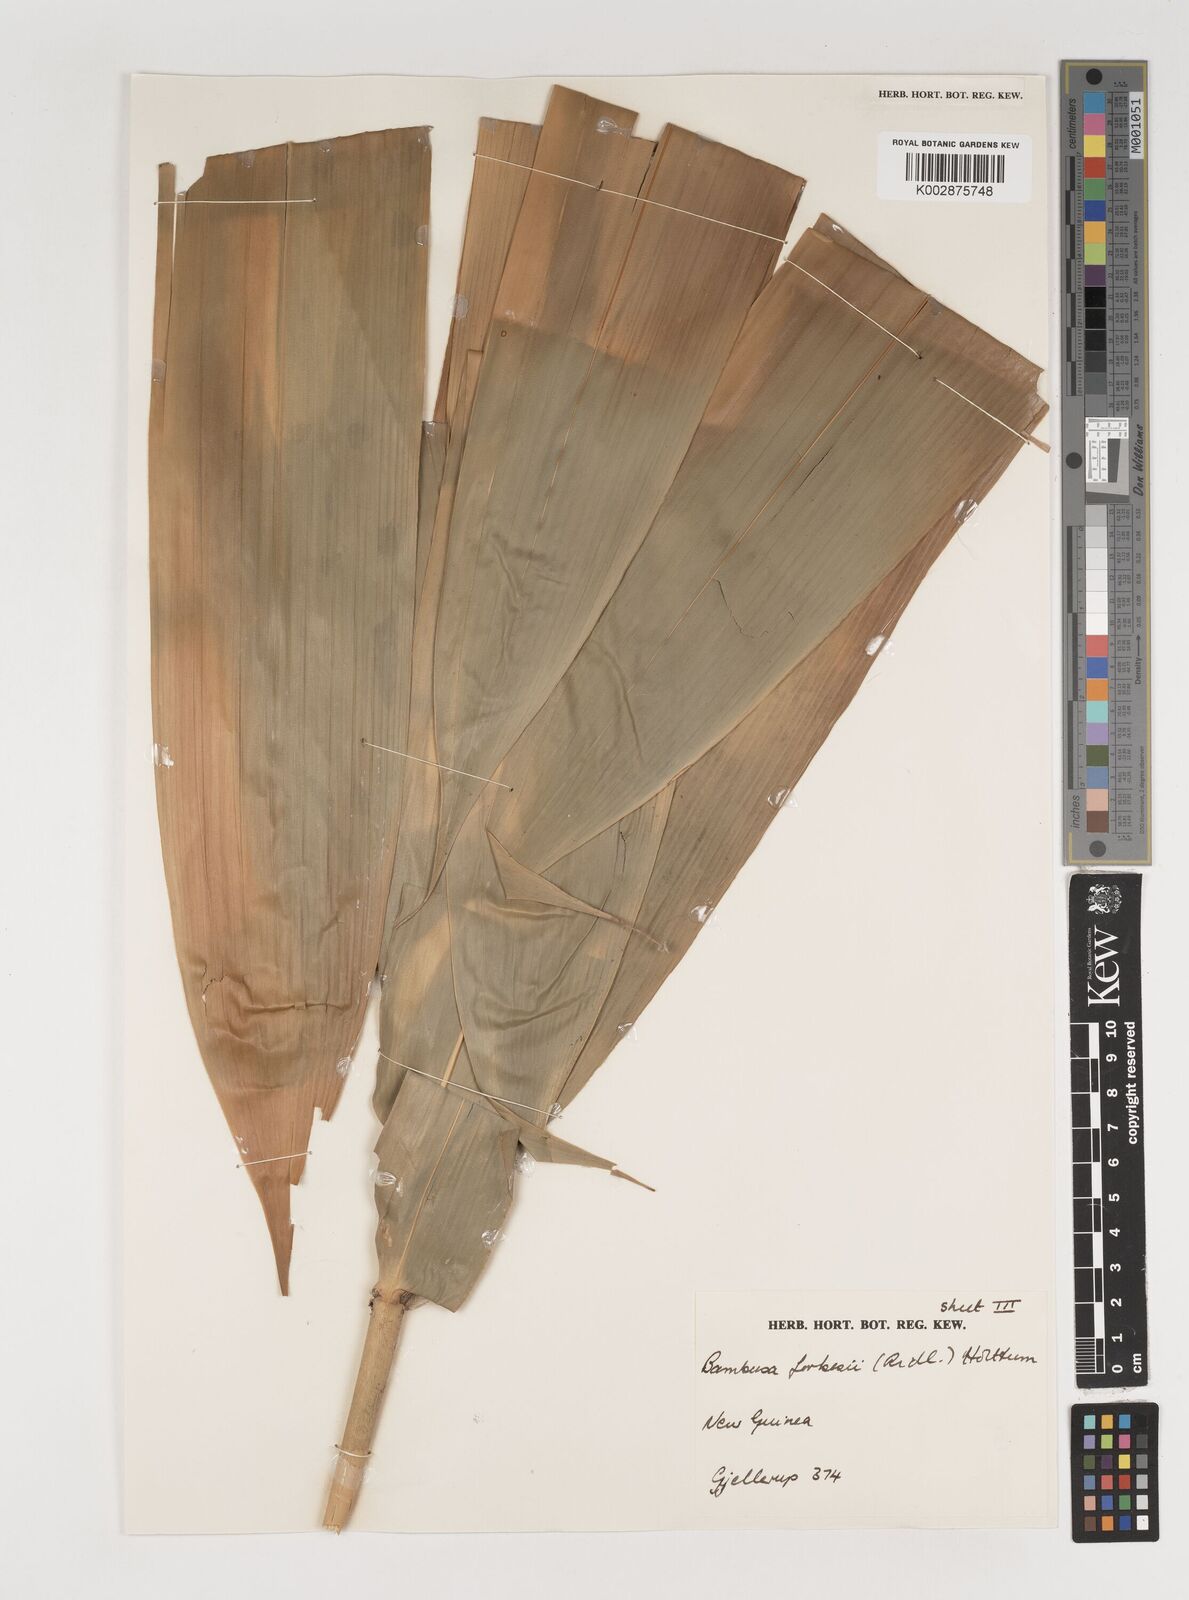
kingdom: Plantae
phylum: Tracheophyta
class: Liliopsida
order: Poales
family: Poaceae
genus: Neololeba
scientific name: Neololeba hirsuta
